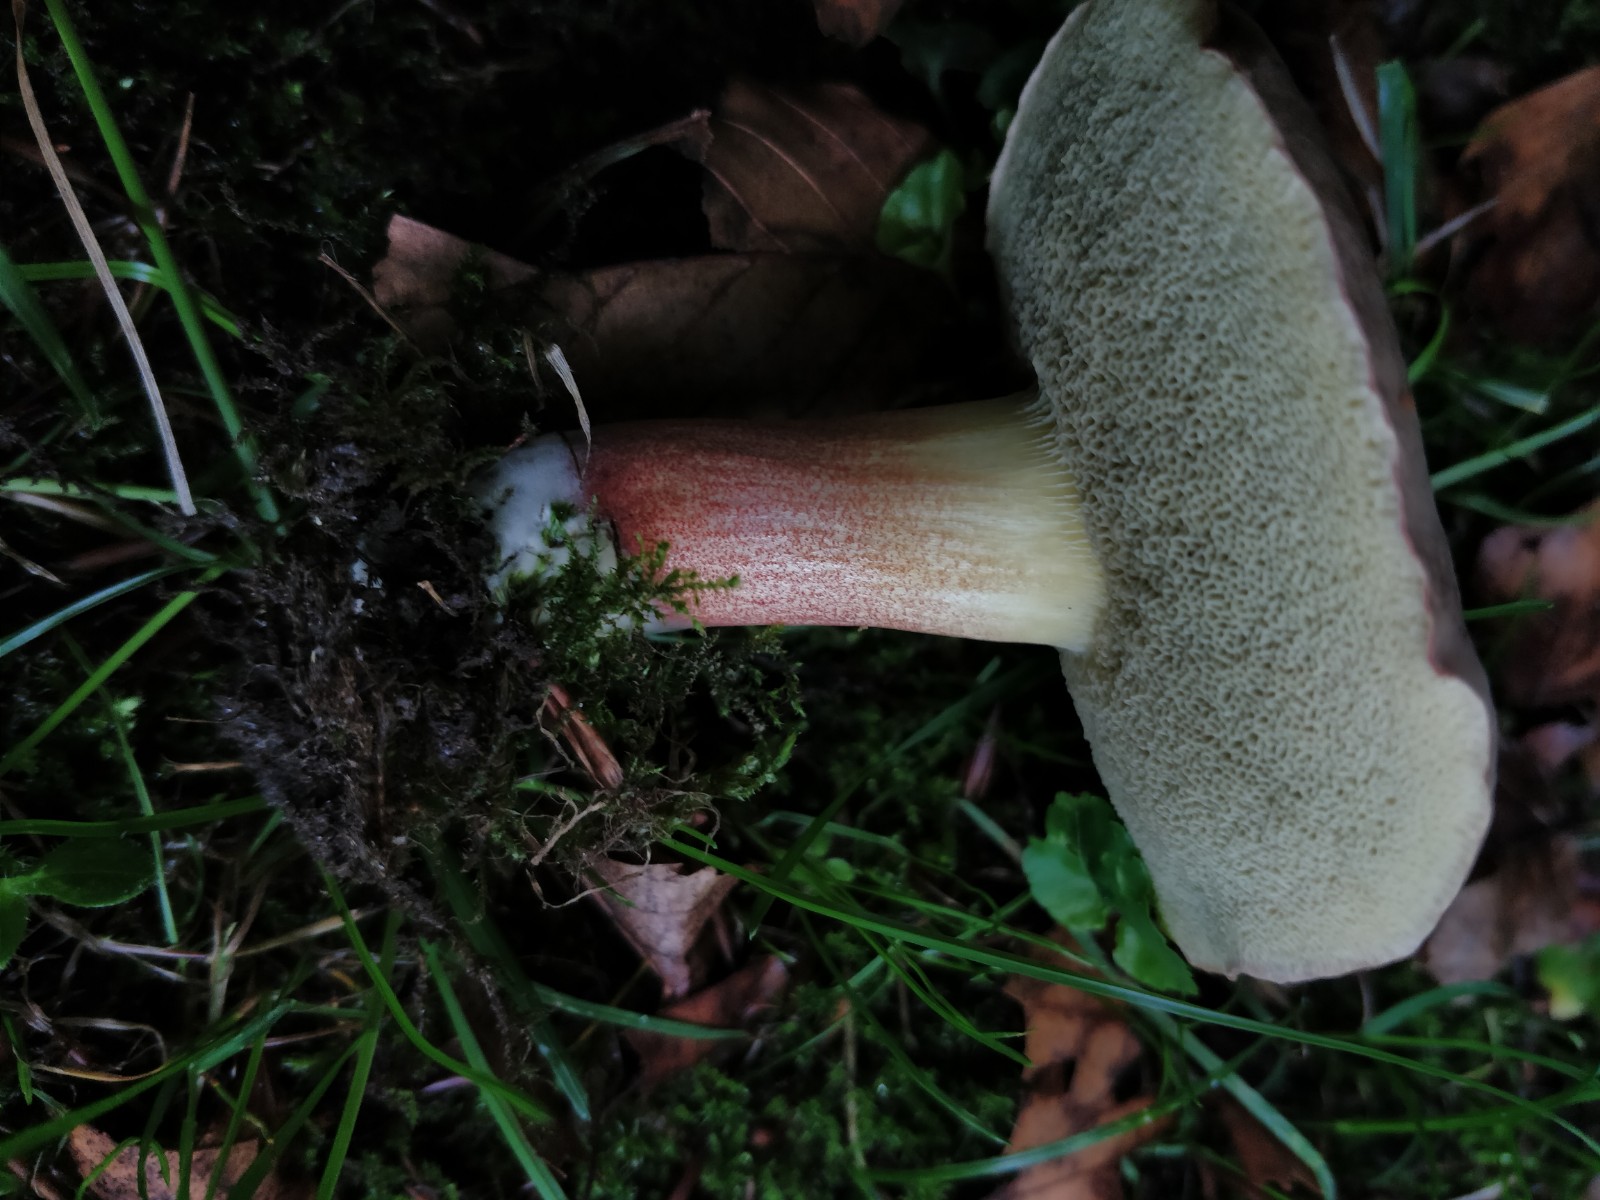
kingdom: Fungi
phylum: Basidiomycota
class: Agaricomycetes
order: Boletales
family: Boletaceae
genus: Xerocomellus
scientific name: Xerocomellus
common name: dværgrørhat
